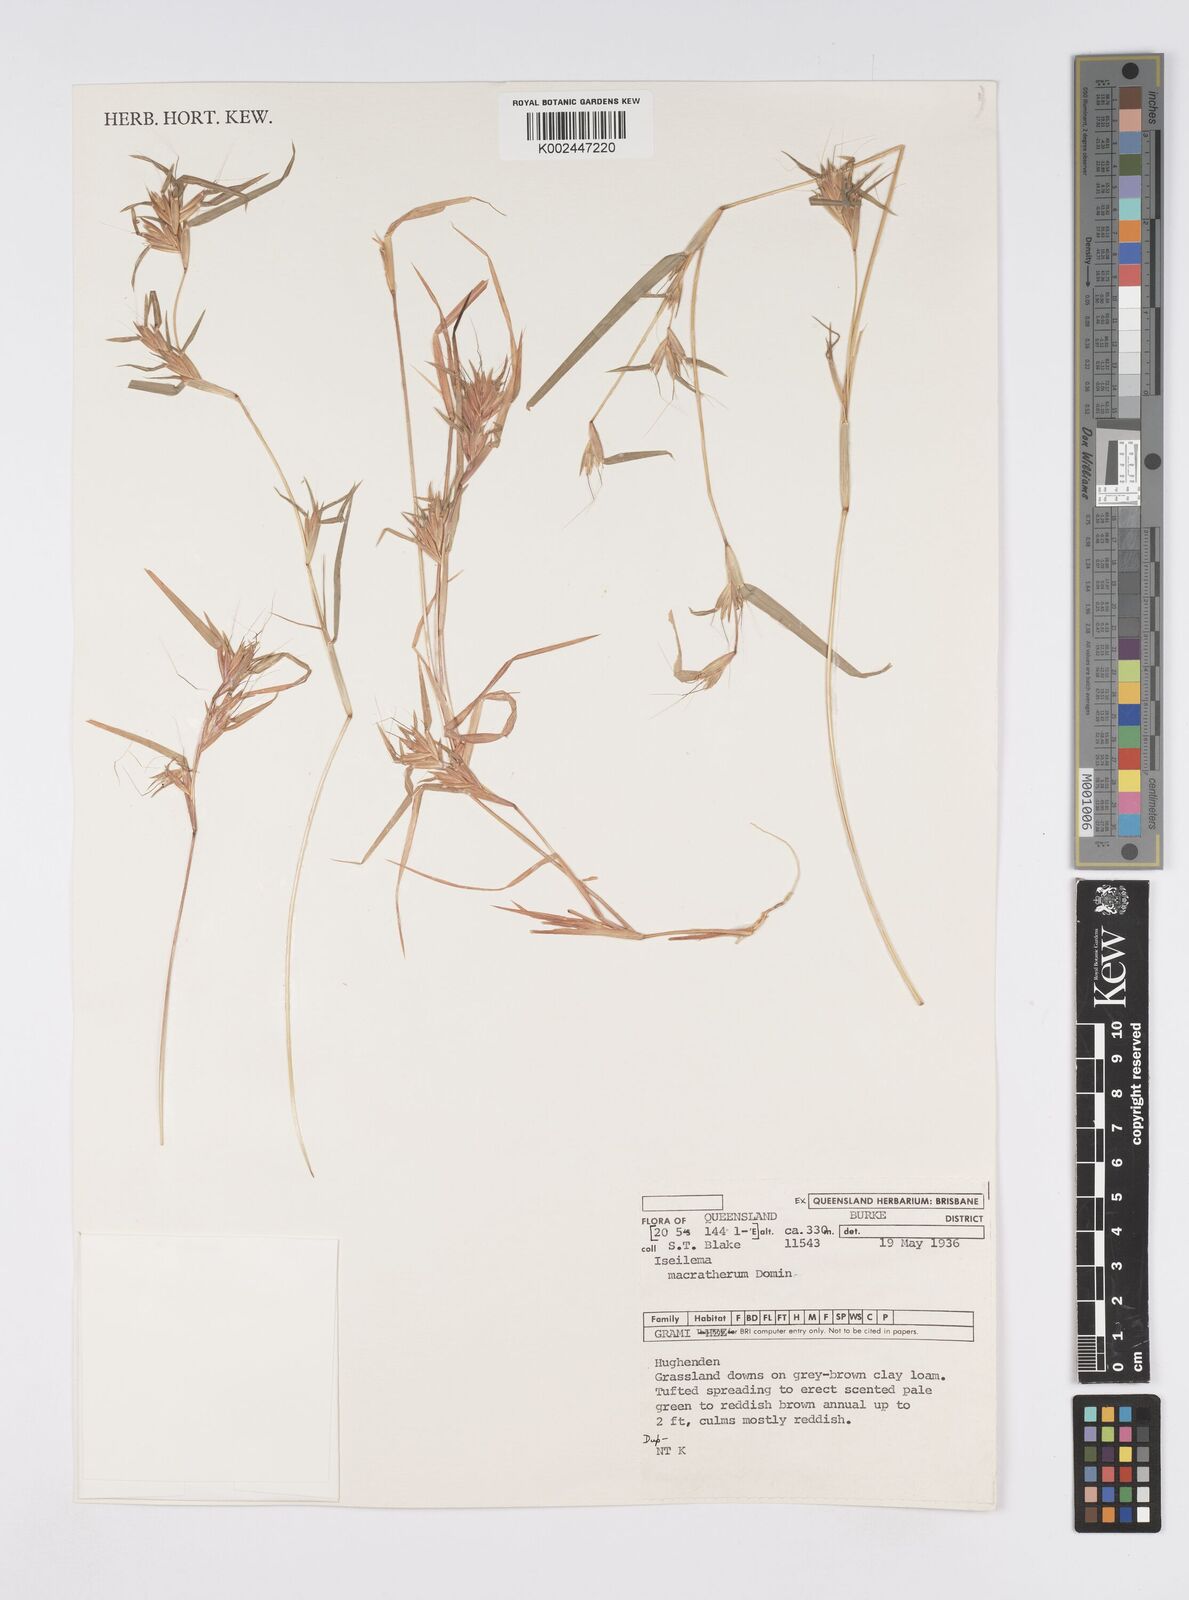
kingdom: Plantae
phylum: Tracheophyta
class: Liliopsida
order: Poales
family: Poaceae
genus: Iseilema
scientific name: Iseilema macratherum
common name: Bull flinders grass
